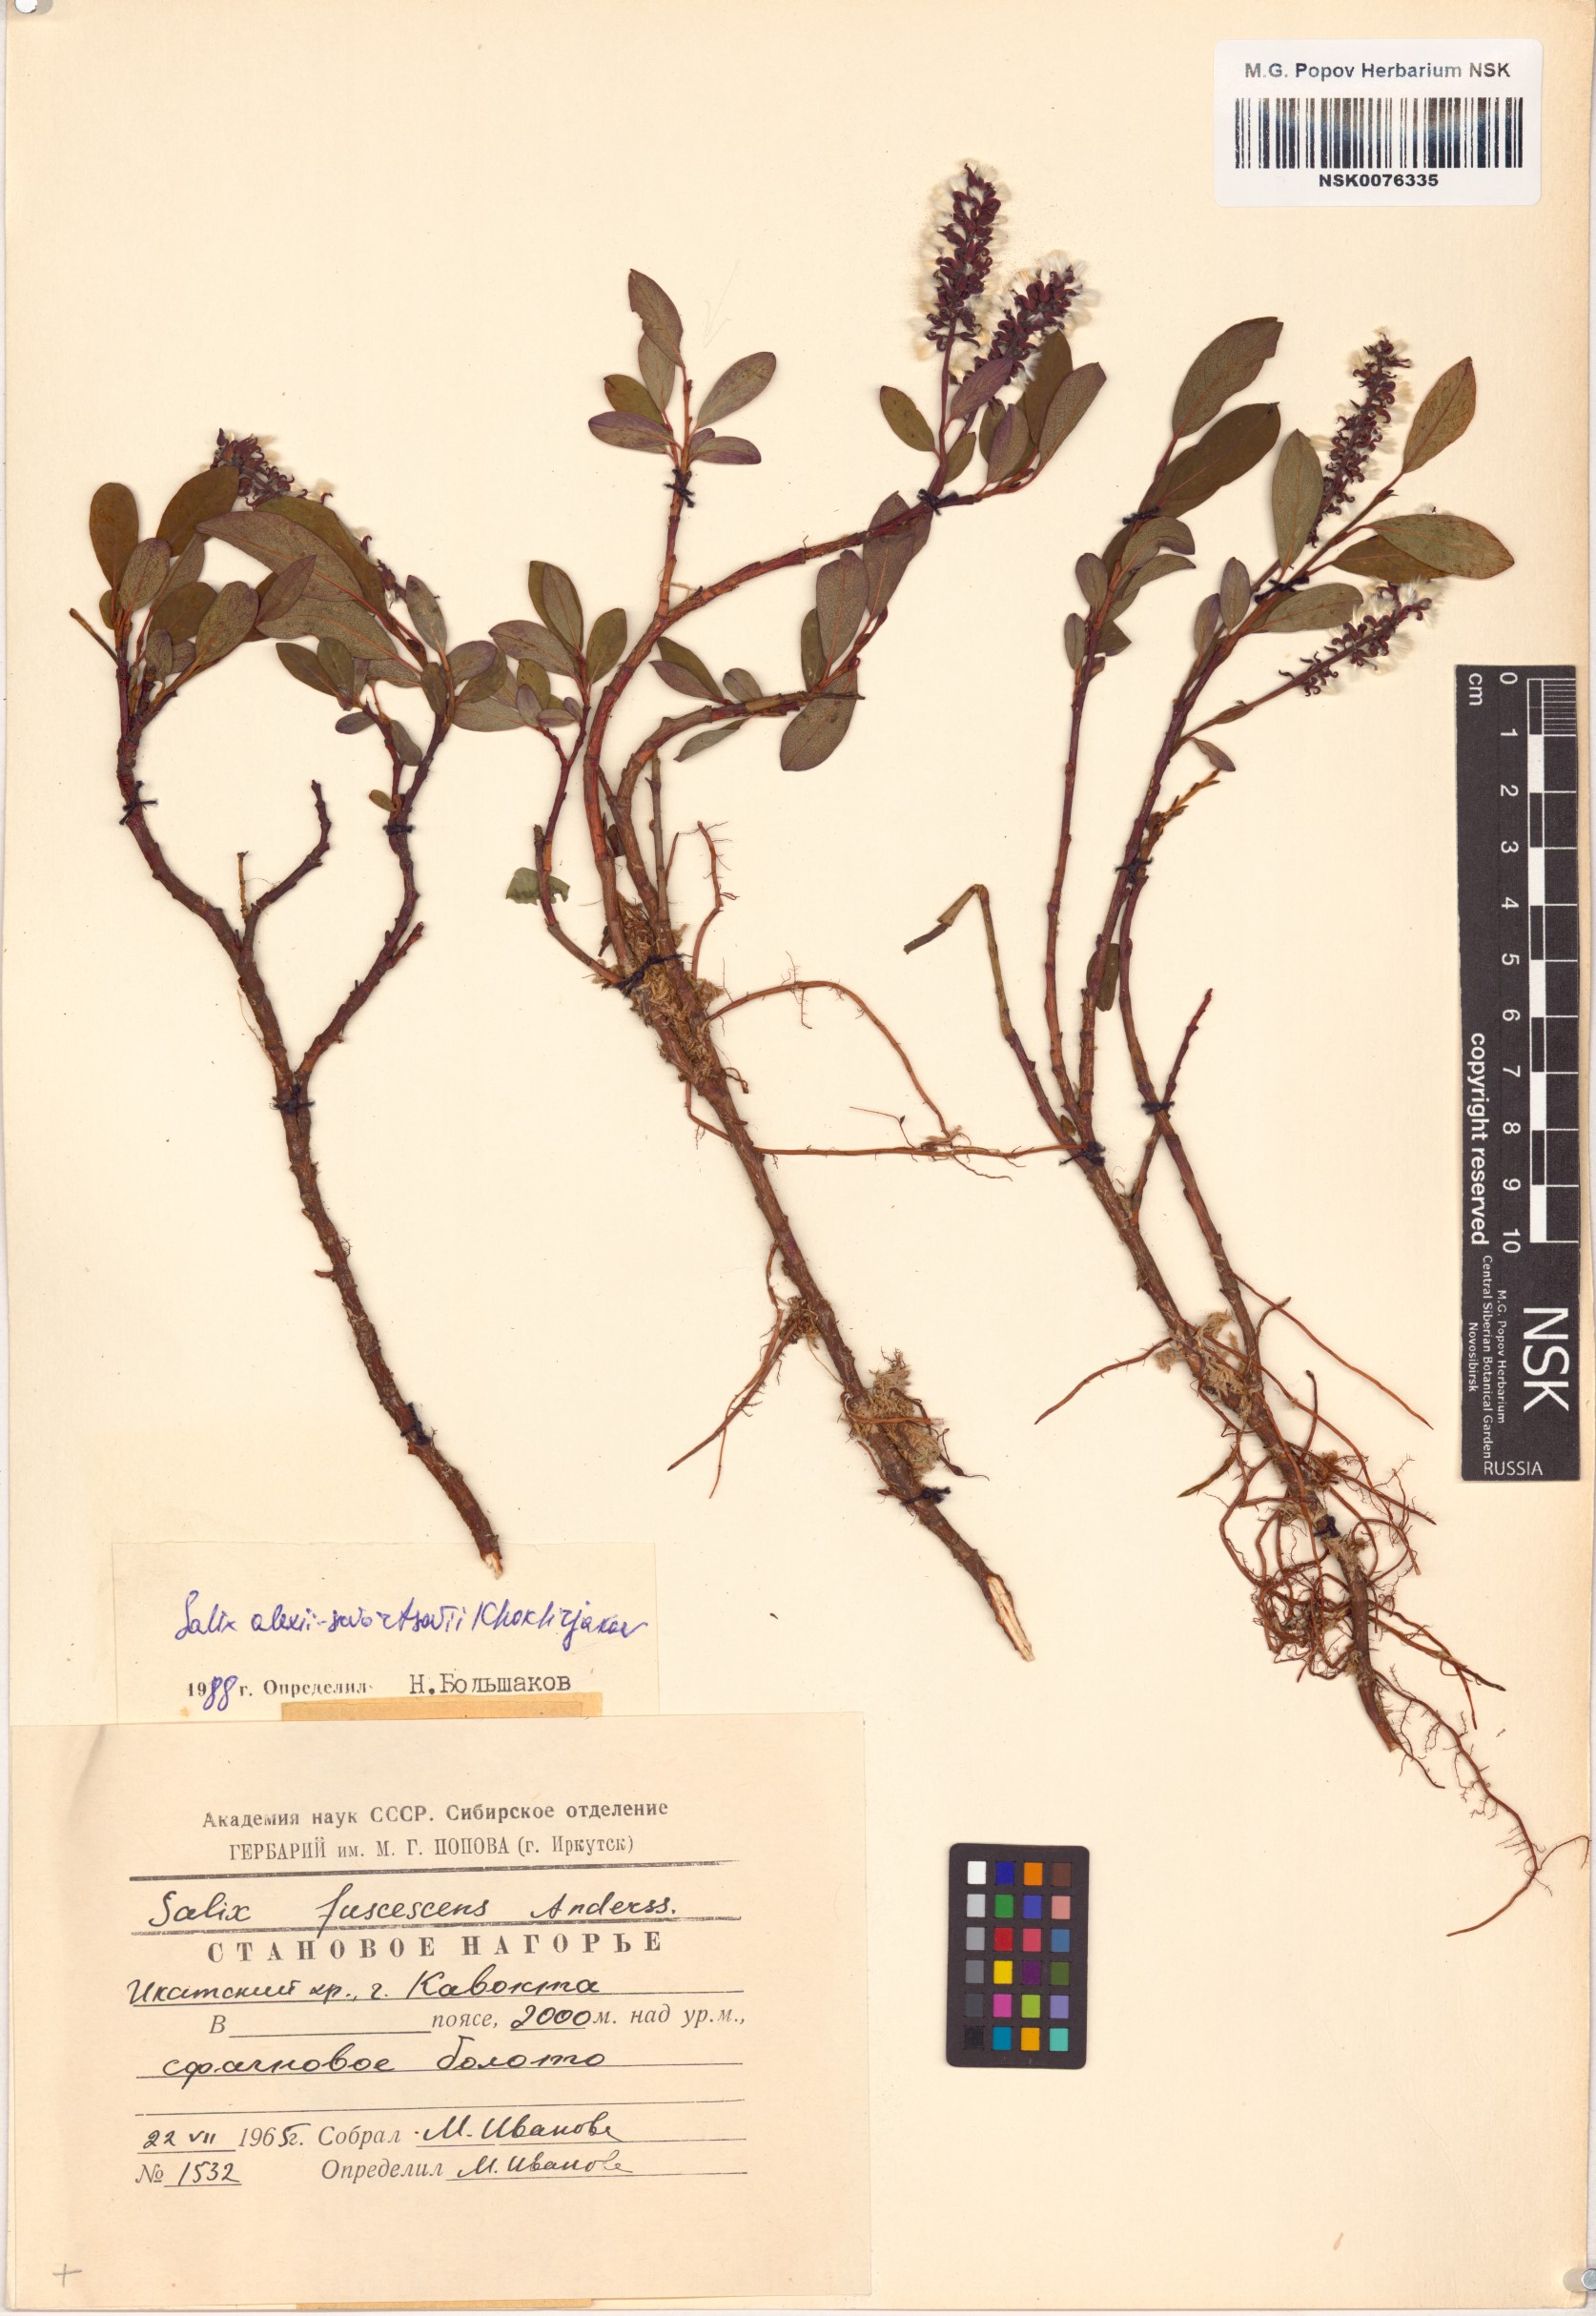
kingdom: Plantae
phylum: Tracheophyta
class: Magnoliopsida
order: Malpighiales
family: Salicaceae
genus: Salix
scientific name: Salix alexii-skvortzovii
